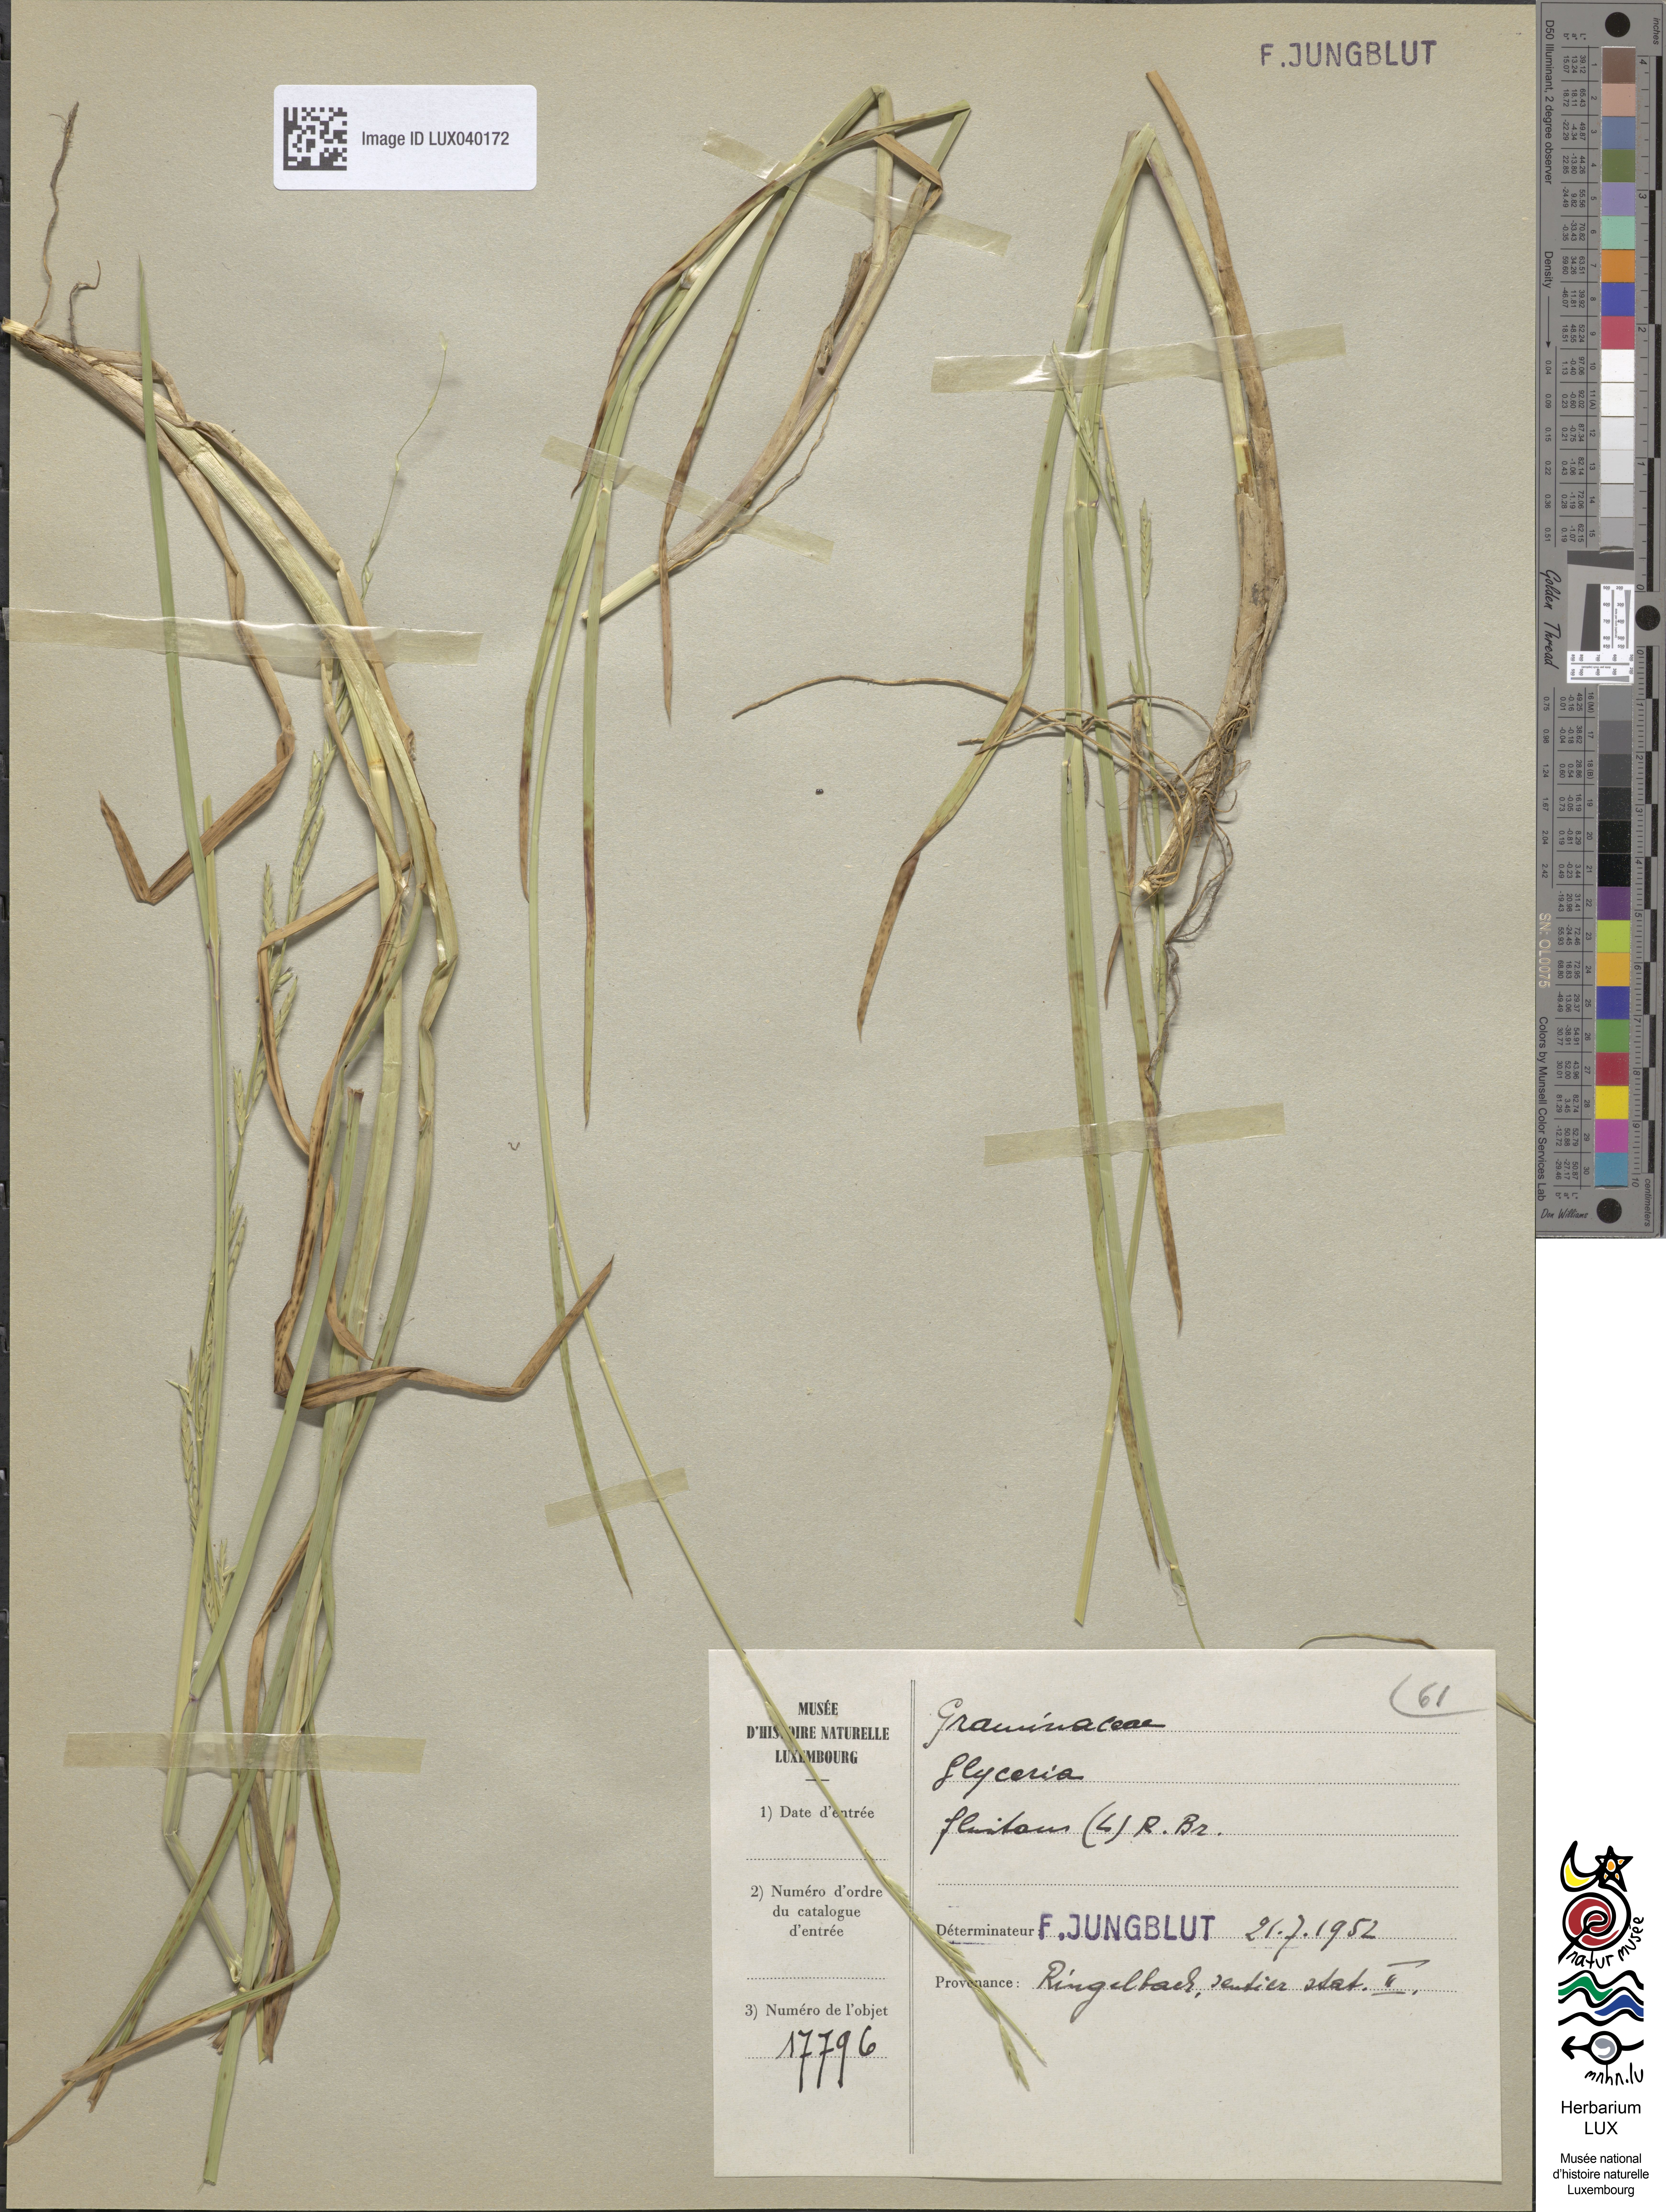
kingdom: Plantae
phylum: Tracheophyta
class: Liliopsida
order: Poales
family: Poaceae
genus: Glyceria
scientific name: Glyceria fluitans
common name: Floating sweet-grass
